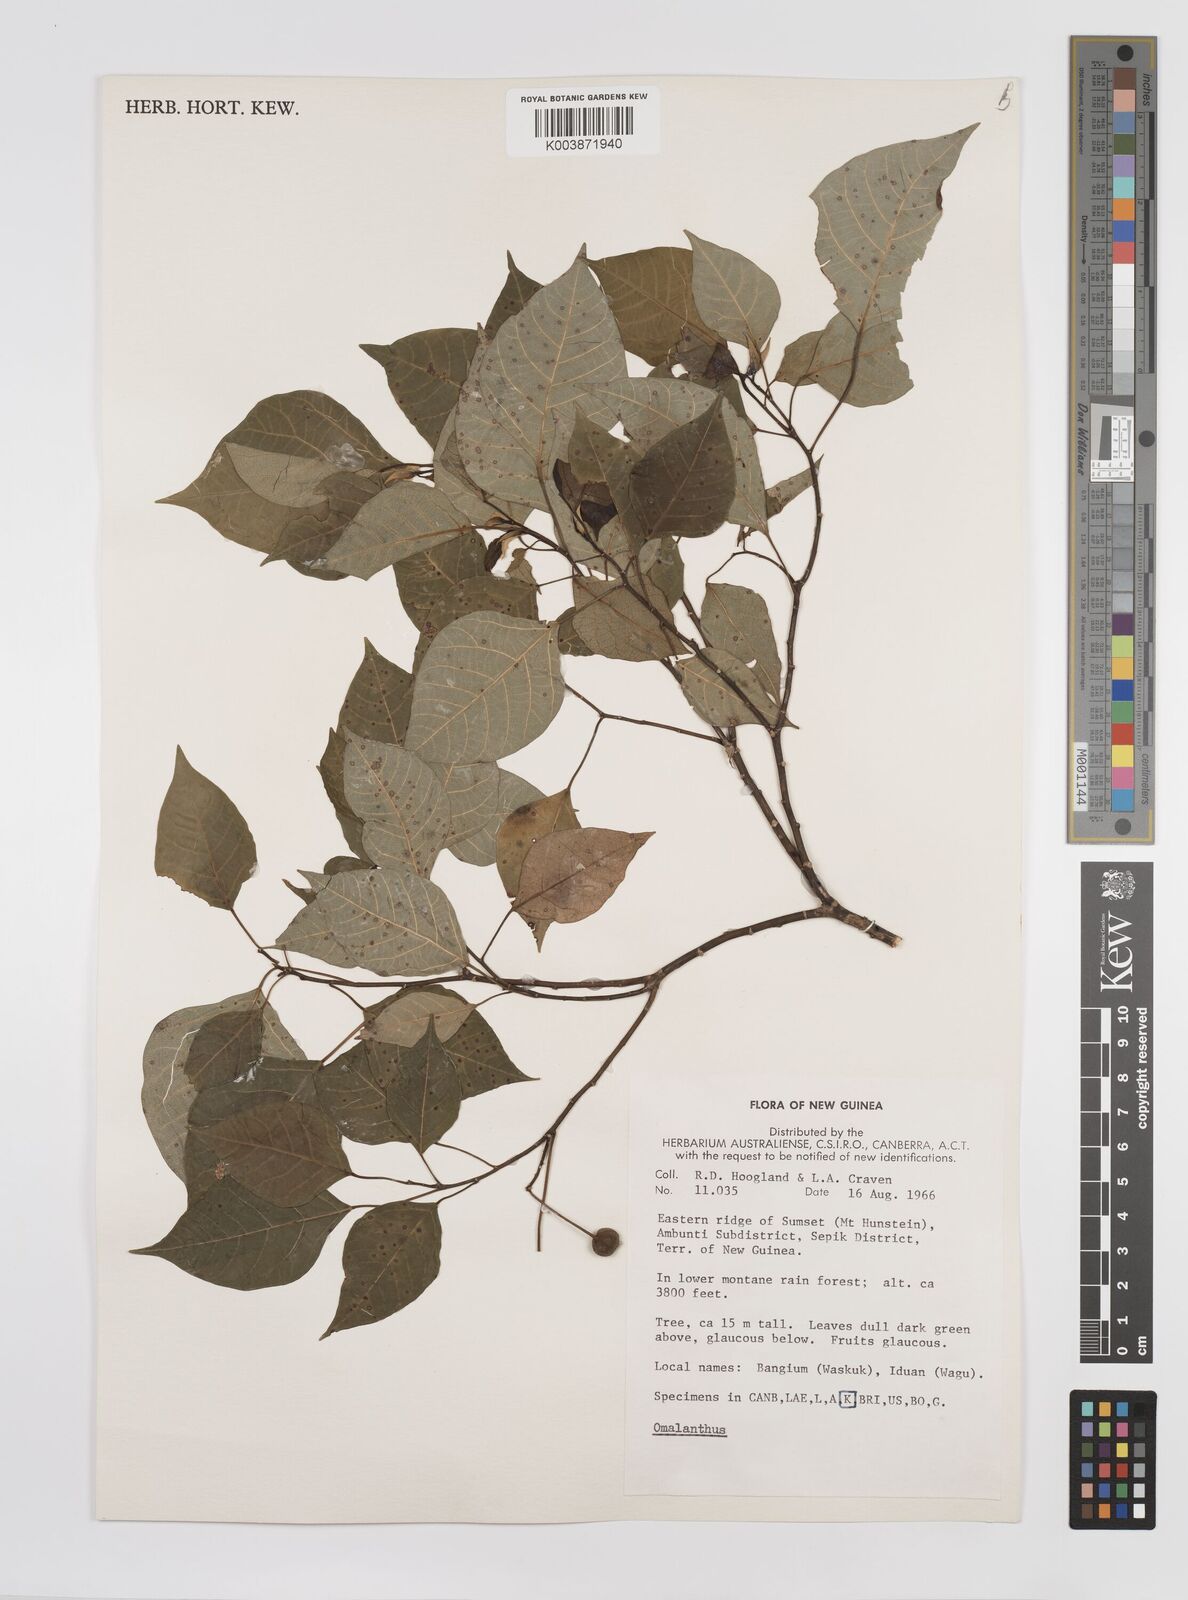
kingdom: Plantae
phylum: Tracheophyta
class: Magnoliopsida
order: Malpighiales
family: Euphorbiaceae
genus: Homalanthus
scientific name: Homalanthus novoguineensis
